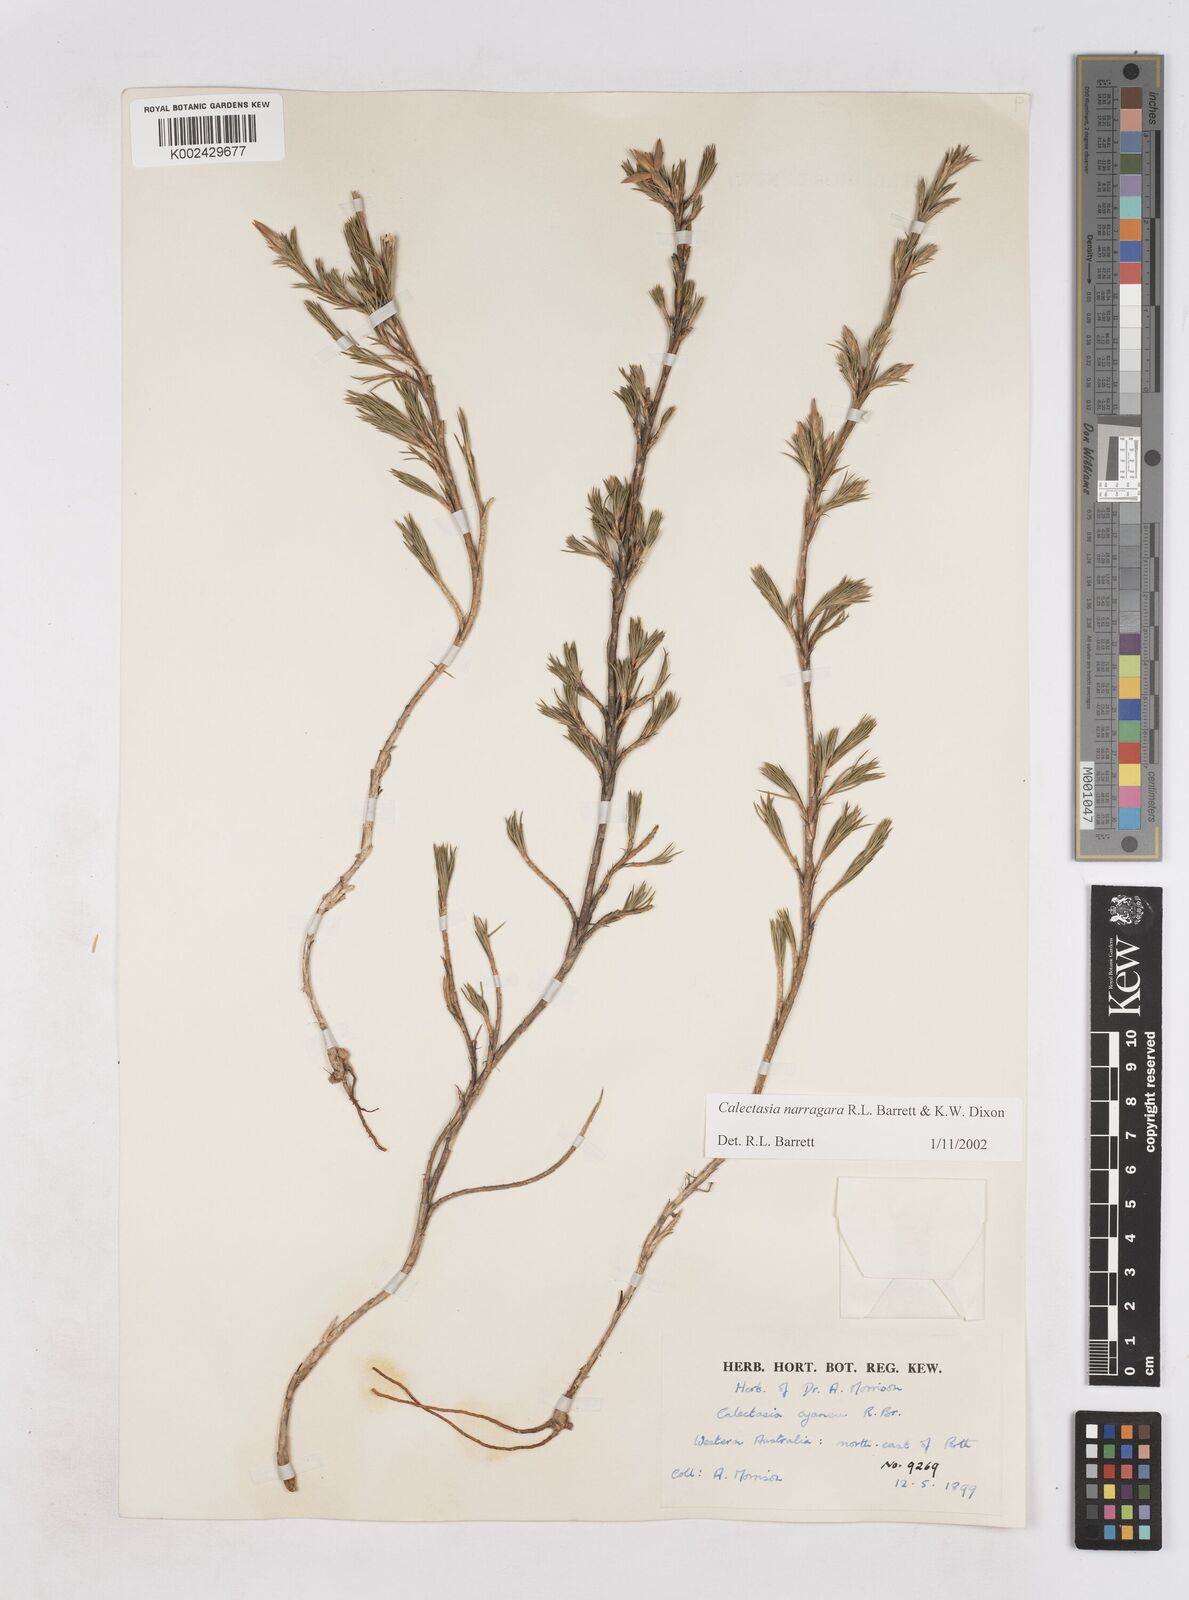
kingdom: Plantae
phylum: Tracheophyta
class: Liliopsida
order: Arecales
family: Dasypogonaceae
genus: Calectasia
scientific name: Calectasia narragara
